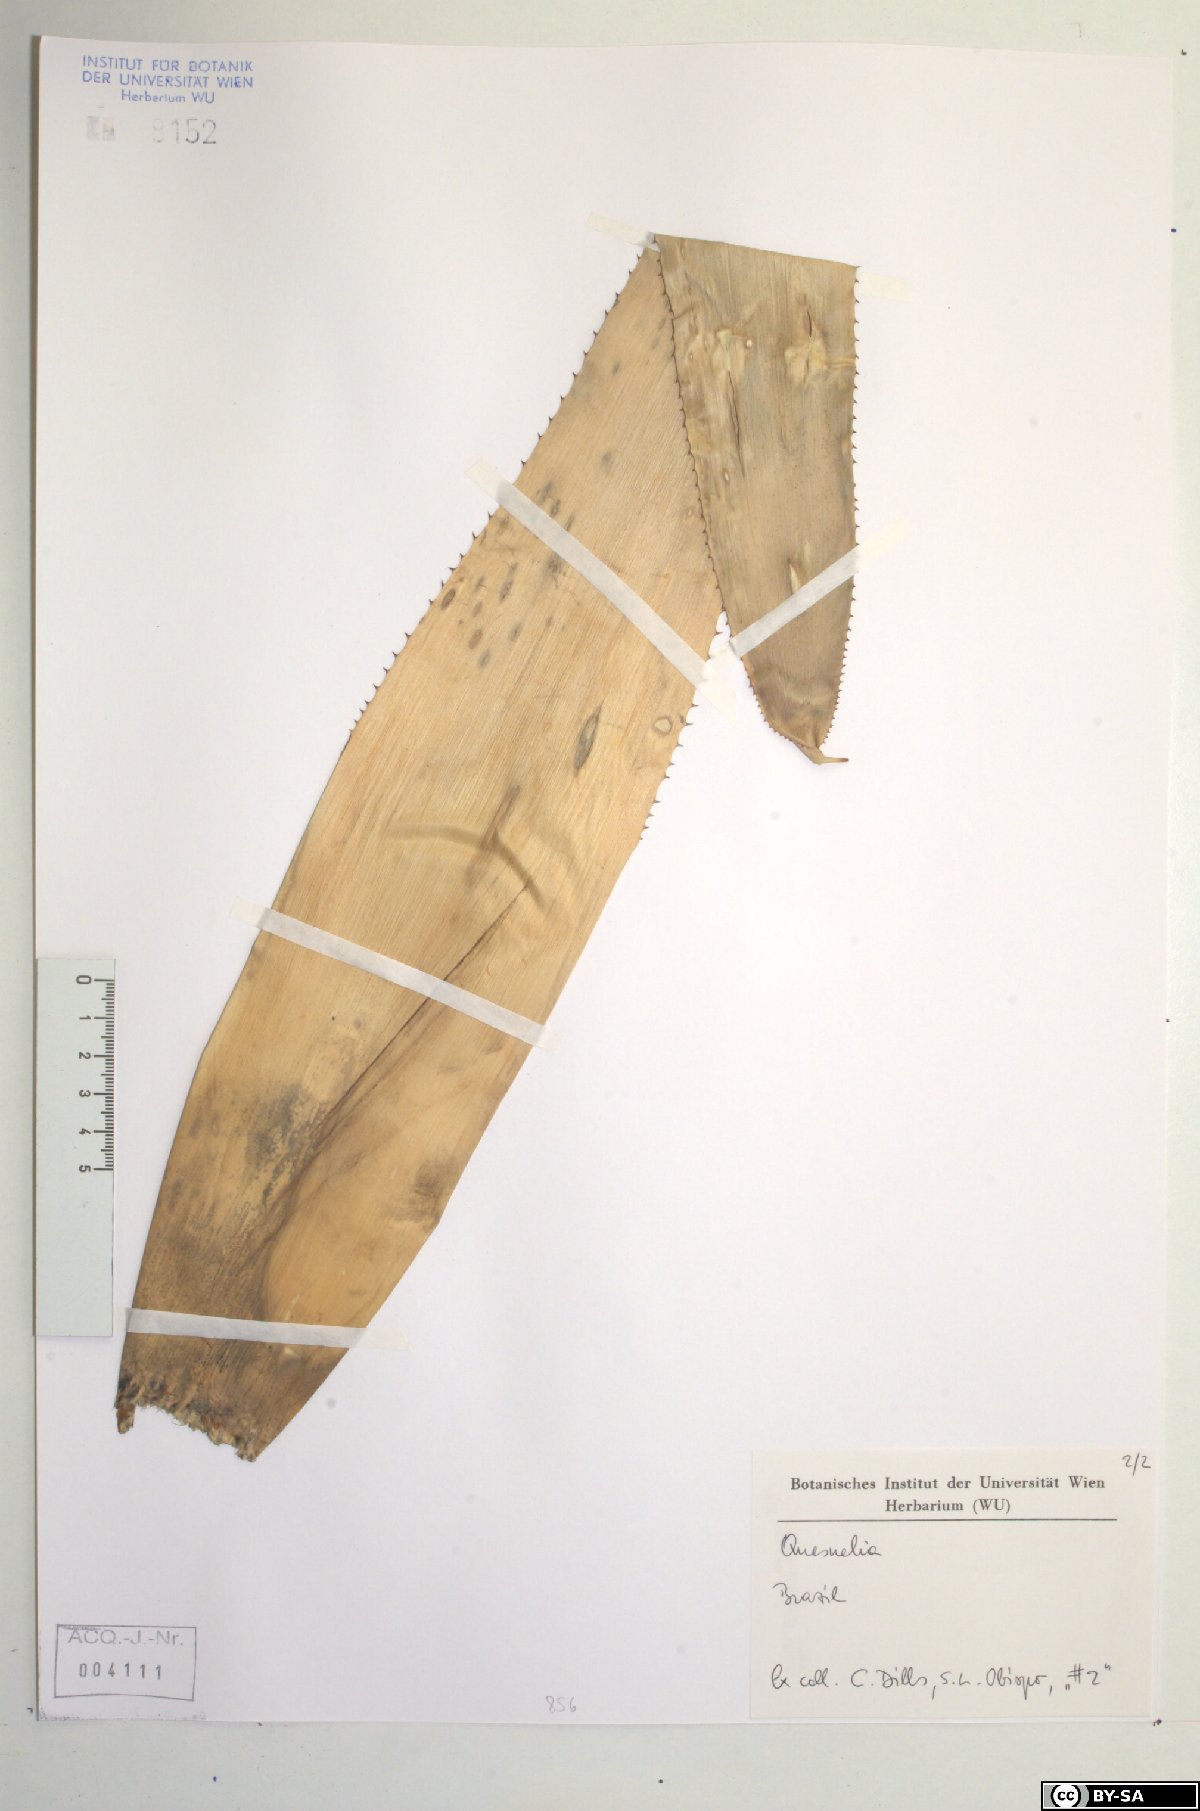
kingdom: Plantae
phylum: Tracheophyta
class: Liliopsida
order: Poales
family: Bromeliaceae
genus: Quesnelia
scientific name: Quesnelia
